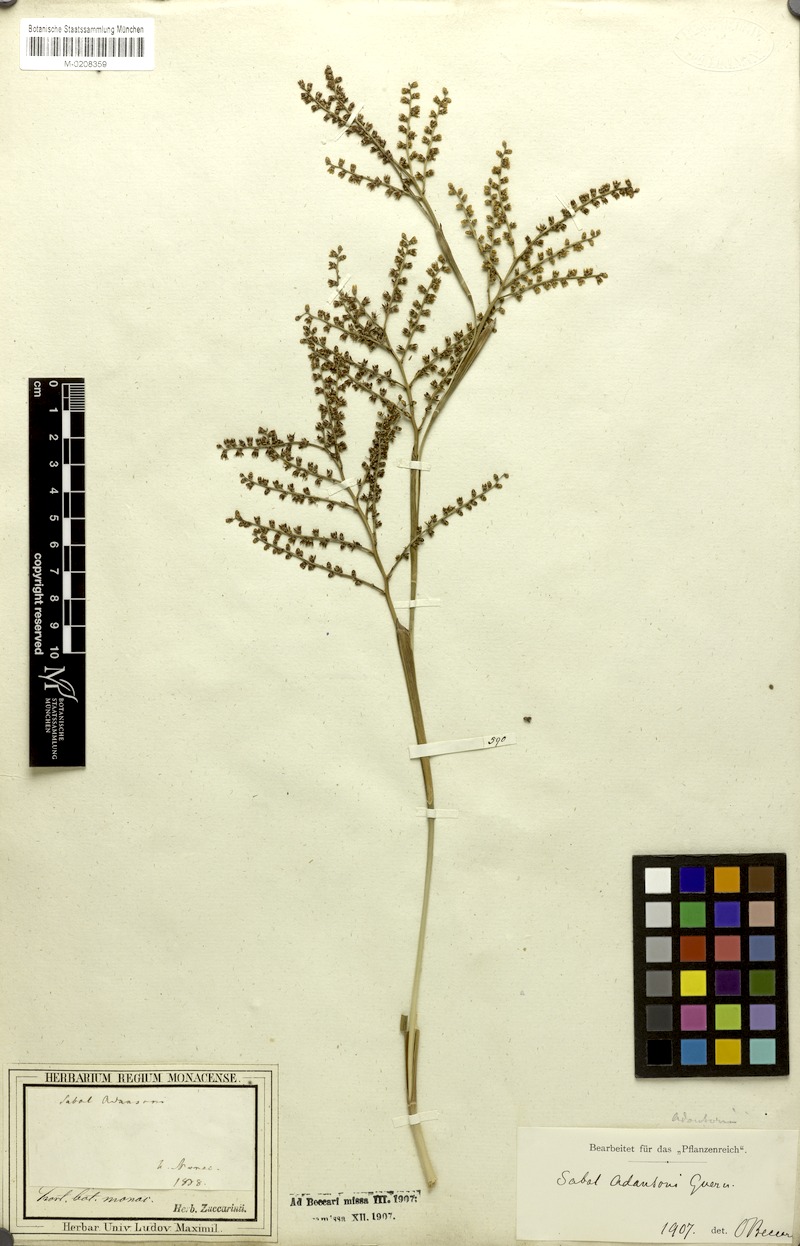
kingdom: Plantae
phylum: Tracheophyta
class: Liliopsida
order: Arecales
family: Arecaceae
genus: Sabal
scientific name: Sabal minor
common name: Dwarf palmetto
